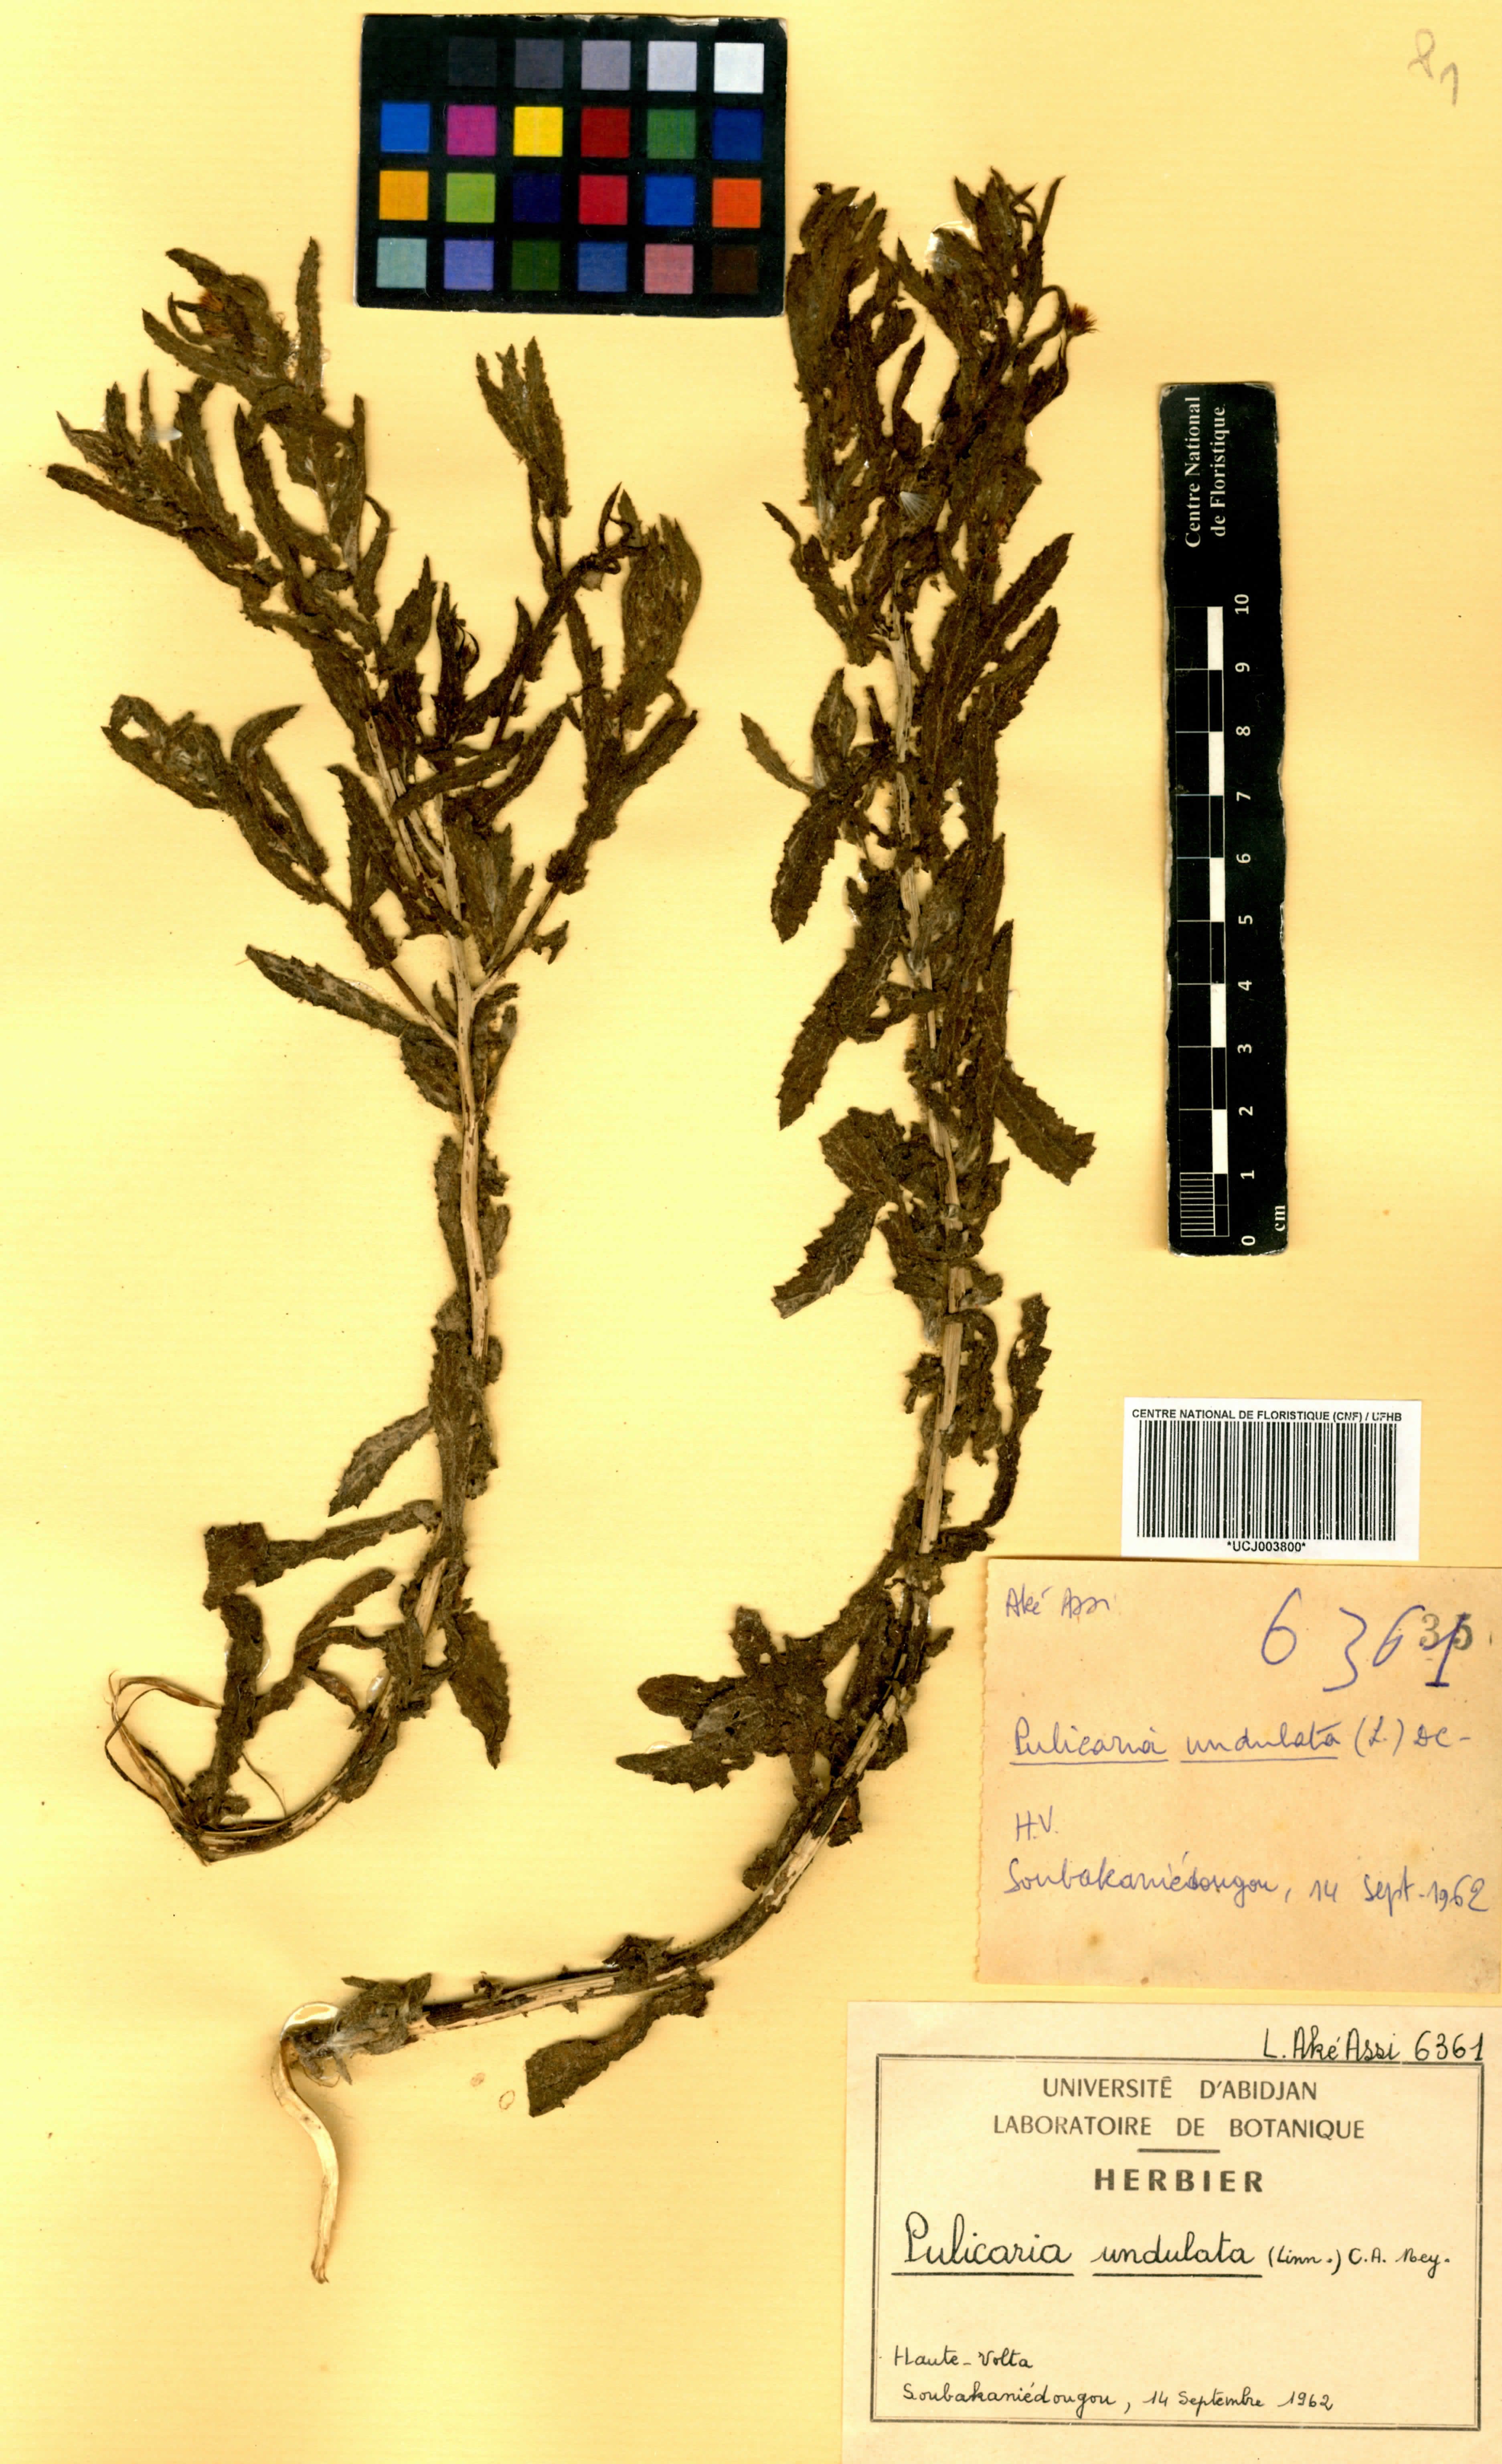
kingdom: Plantae
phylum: Tracheophyta
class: Magnoliopsida
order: Asterales
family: Asteraceae
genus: Pulicaria
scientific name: Pulicaria undulata
